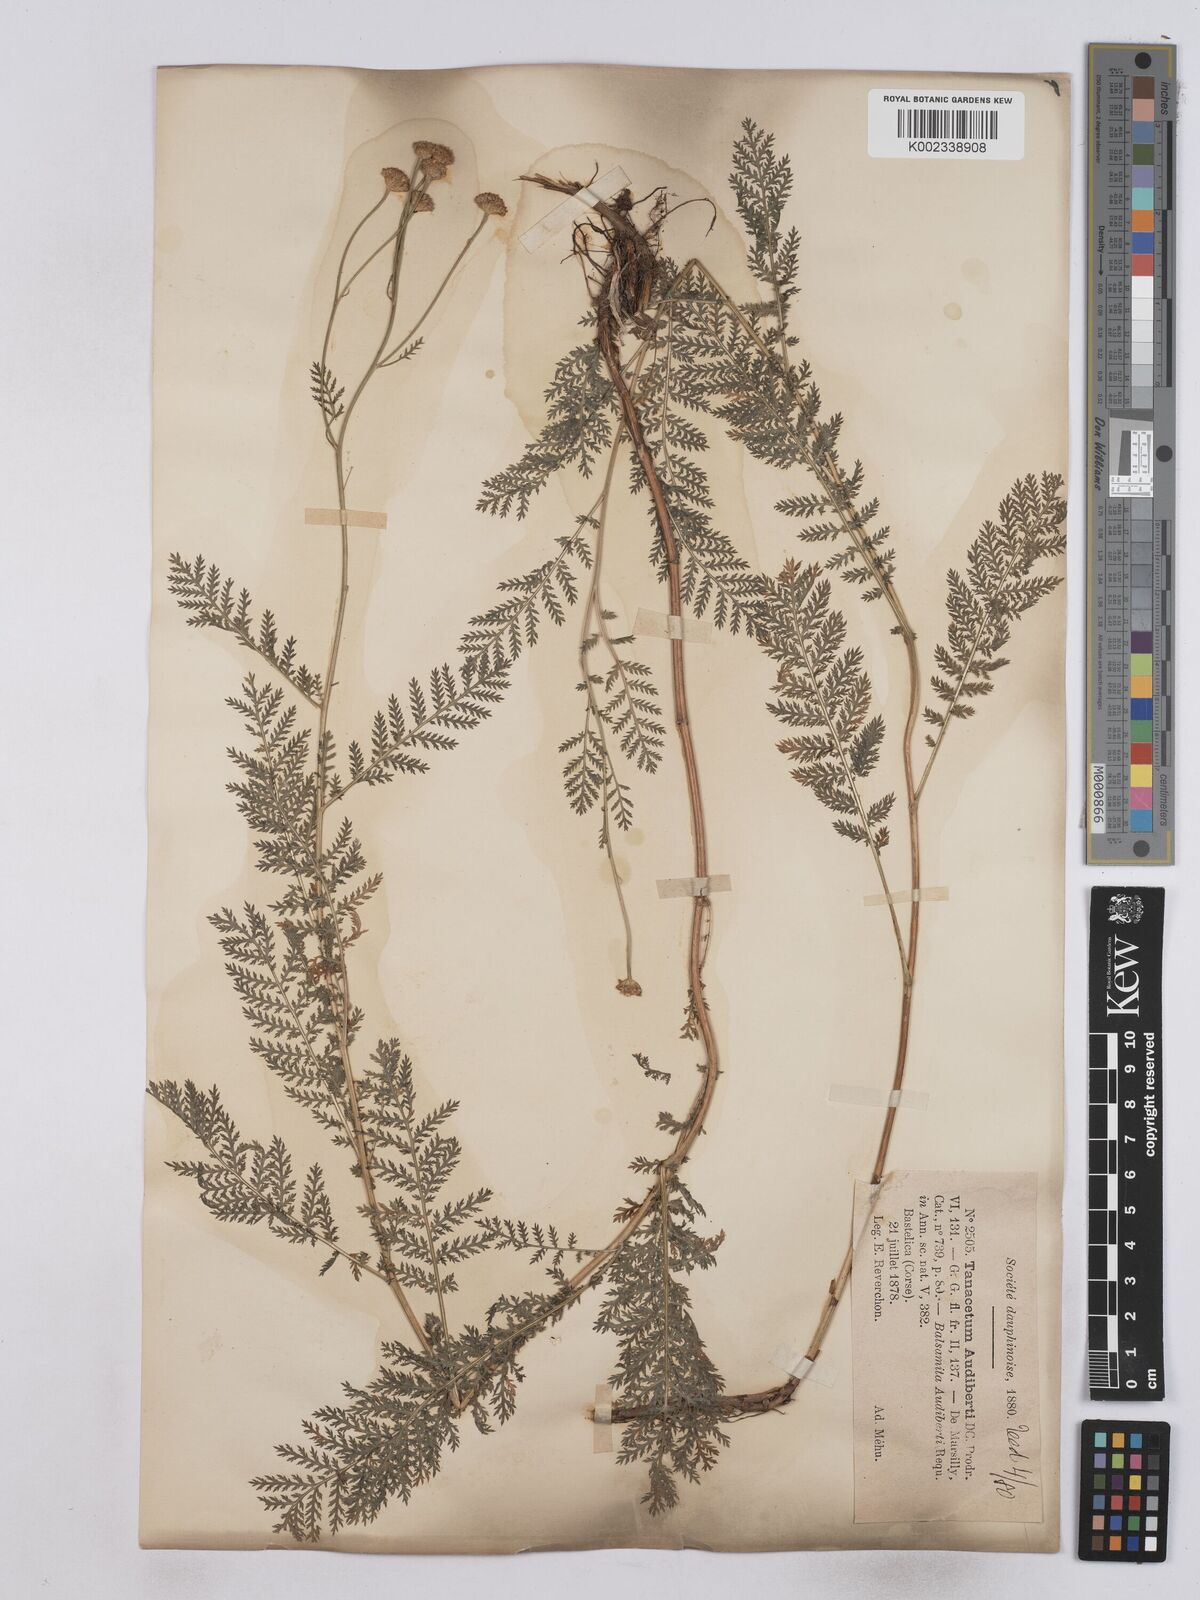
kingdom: Plantae
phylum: Tracheophyta
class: Magnoliopsida
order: Asterales
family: Asteraceae
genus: Tanacetum
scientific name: Tanacetum audibertii
